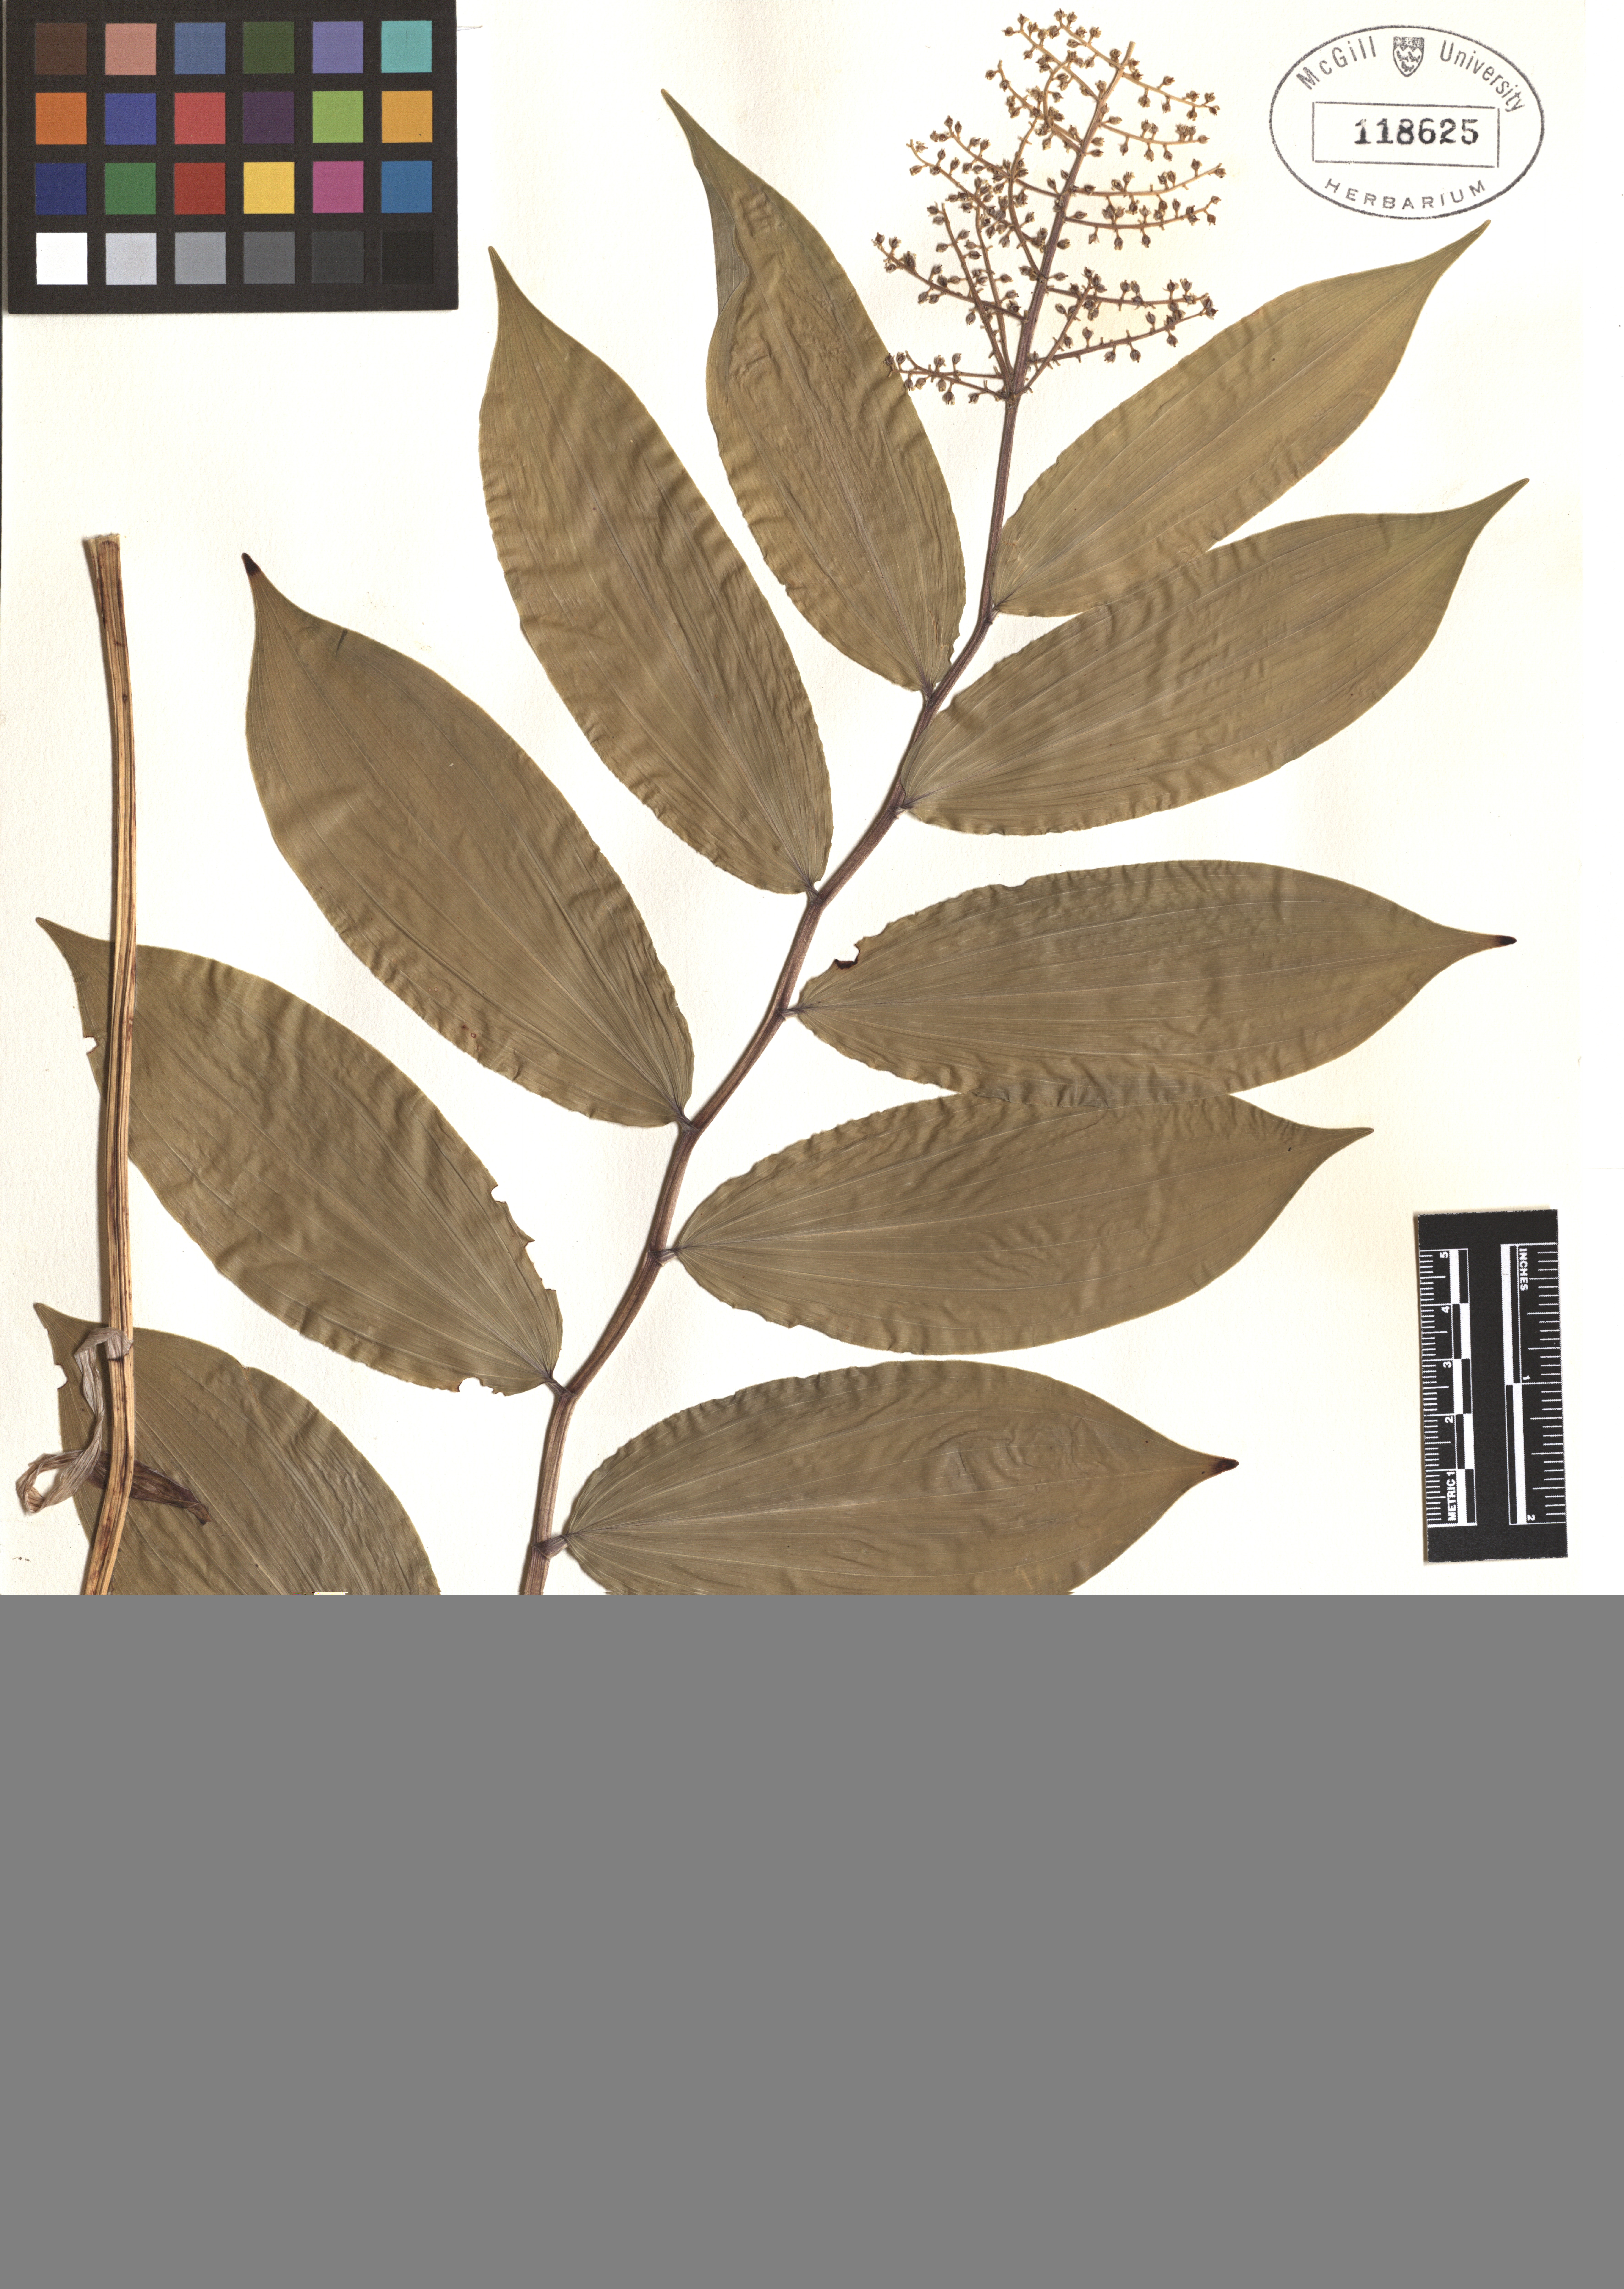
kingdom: Plantae
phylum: Tracheophyta
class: Liliopsida
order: Asparagales
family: Asparagaceae
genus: Maianthemum
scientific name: Maianthemum racemosum
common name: False spikenard
